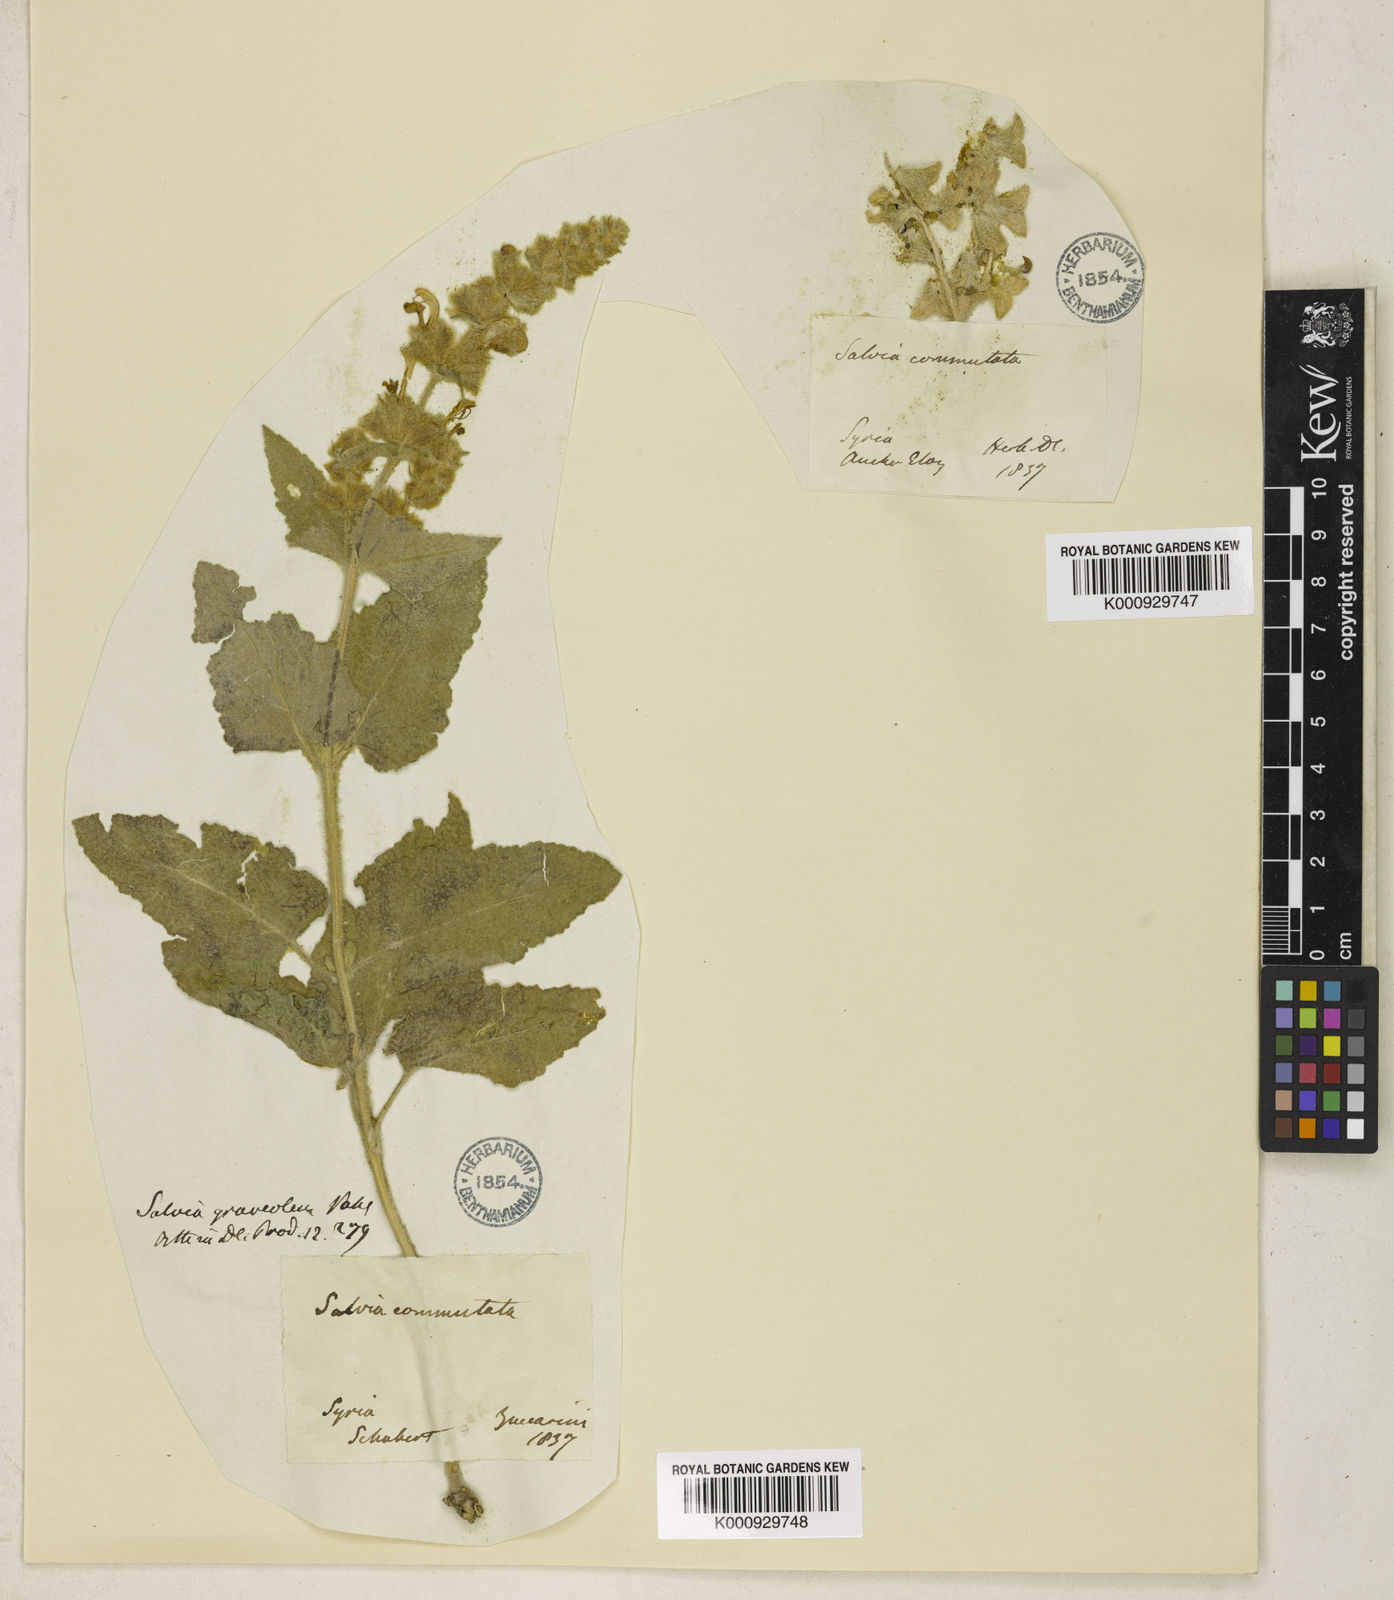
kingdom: Plantae
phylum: Tracheophyta
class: Magnoliopsida
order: Lamiales
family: Lamiaceae
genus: Salvia
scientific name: Salvia dominica
